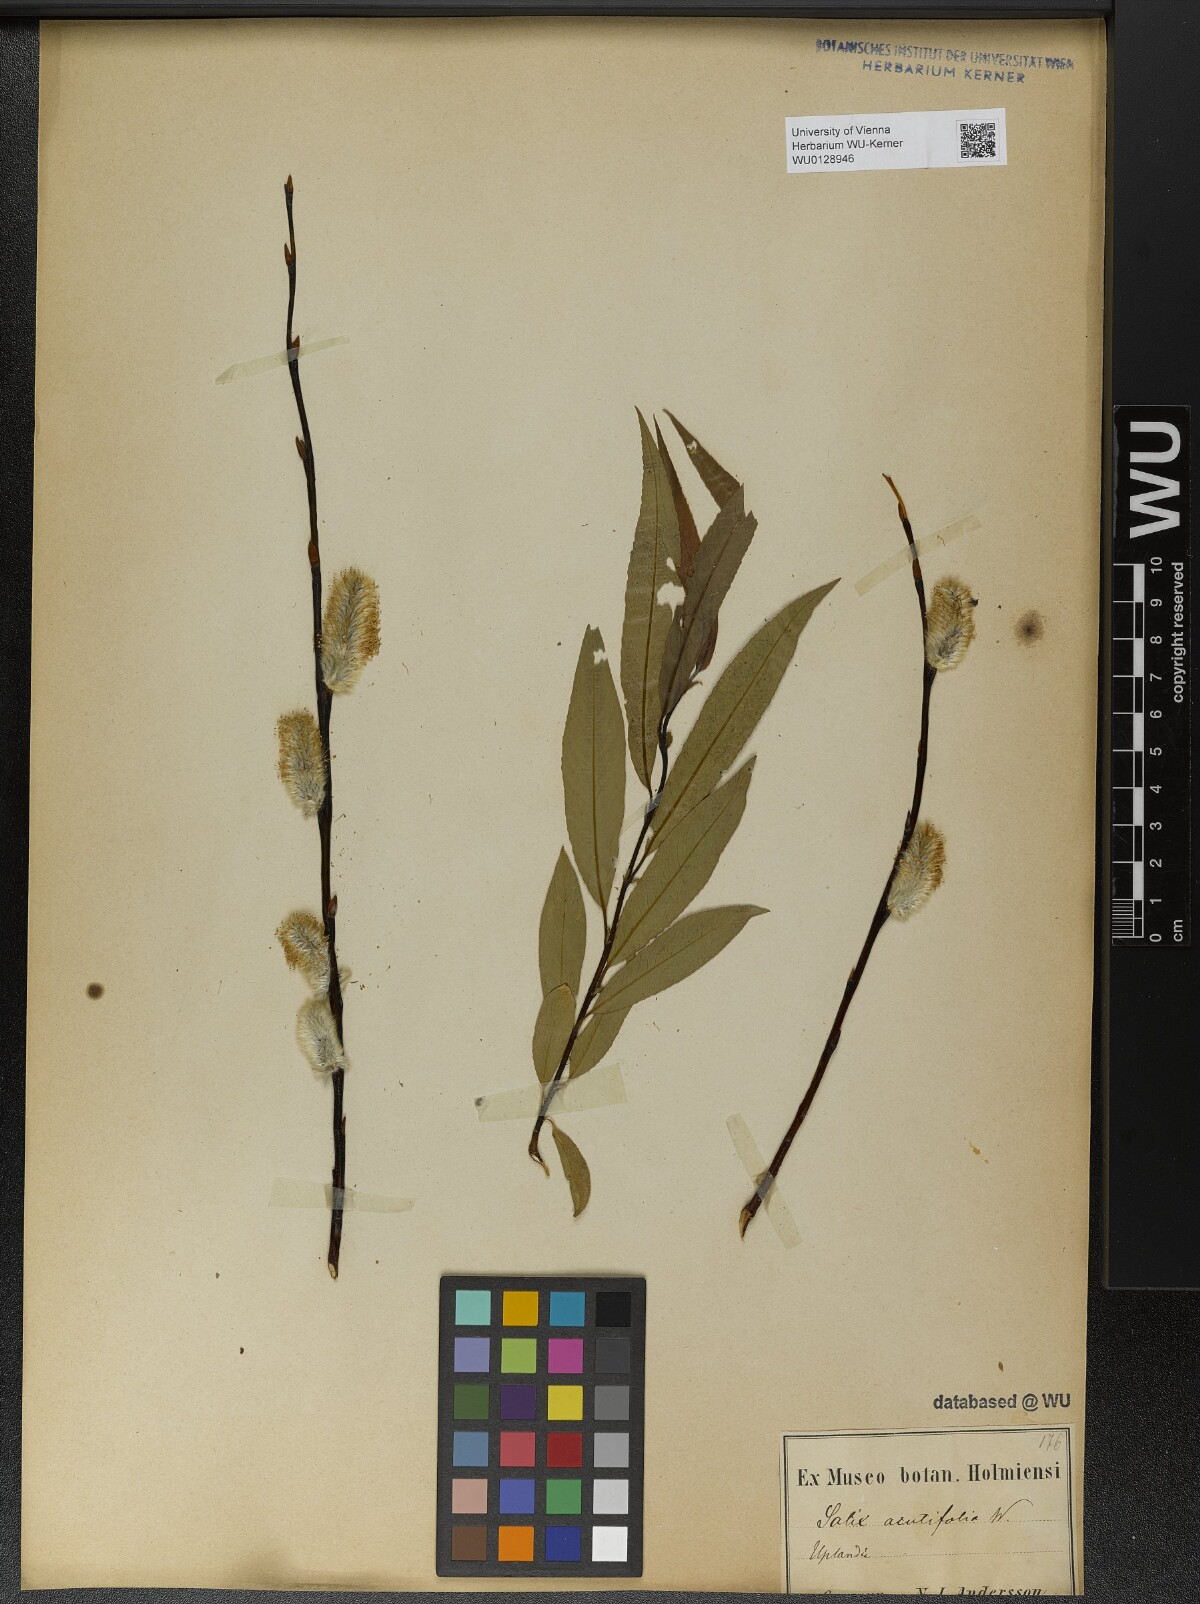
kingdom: Plantae
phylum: Tracheophyta
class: Magnoliopsida
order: Malpighiales
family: Salicaceae
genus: Salix
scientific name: Salix acutifolia
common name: Siberian violet-willow
